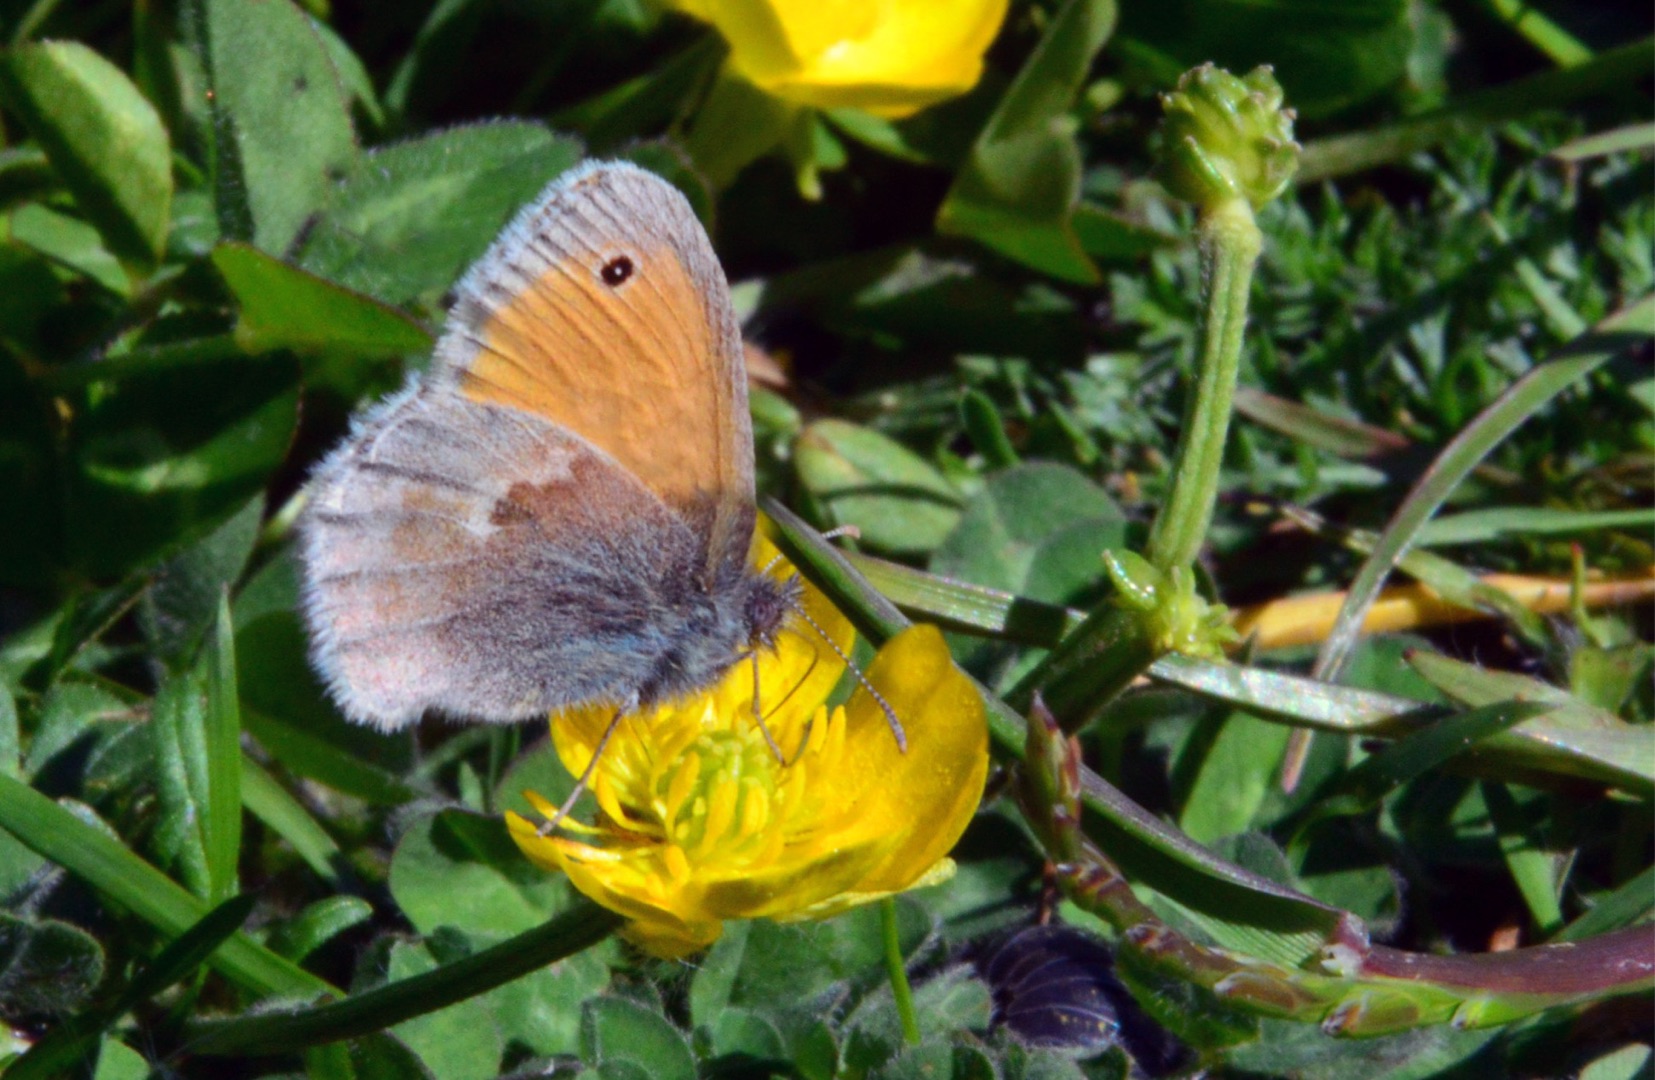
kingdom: Animalia
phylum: Arthropoda
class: Insecta
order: Lepidoptera
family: Nymphalidae
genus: Coenonympha
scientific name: Coenonympha pamphilus
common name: Okkergul randøje
